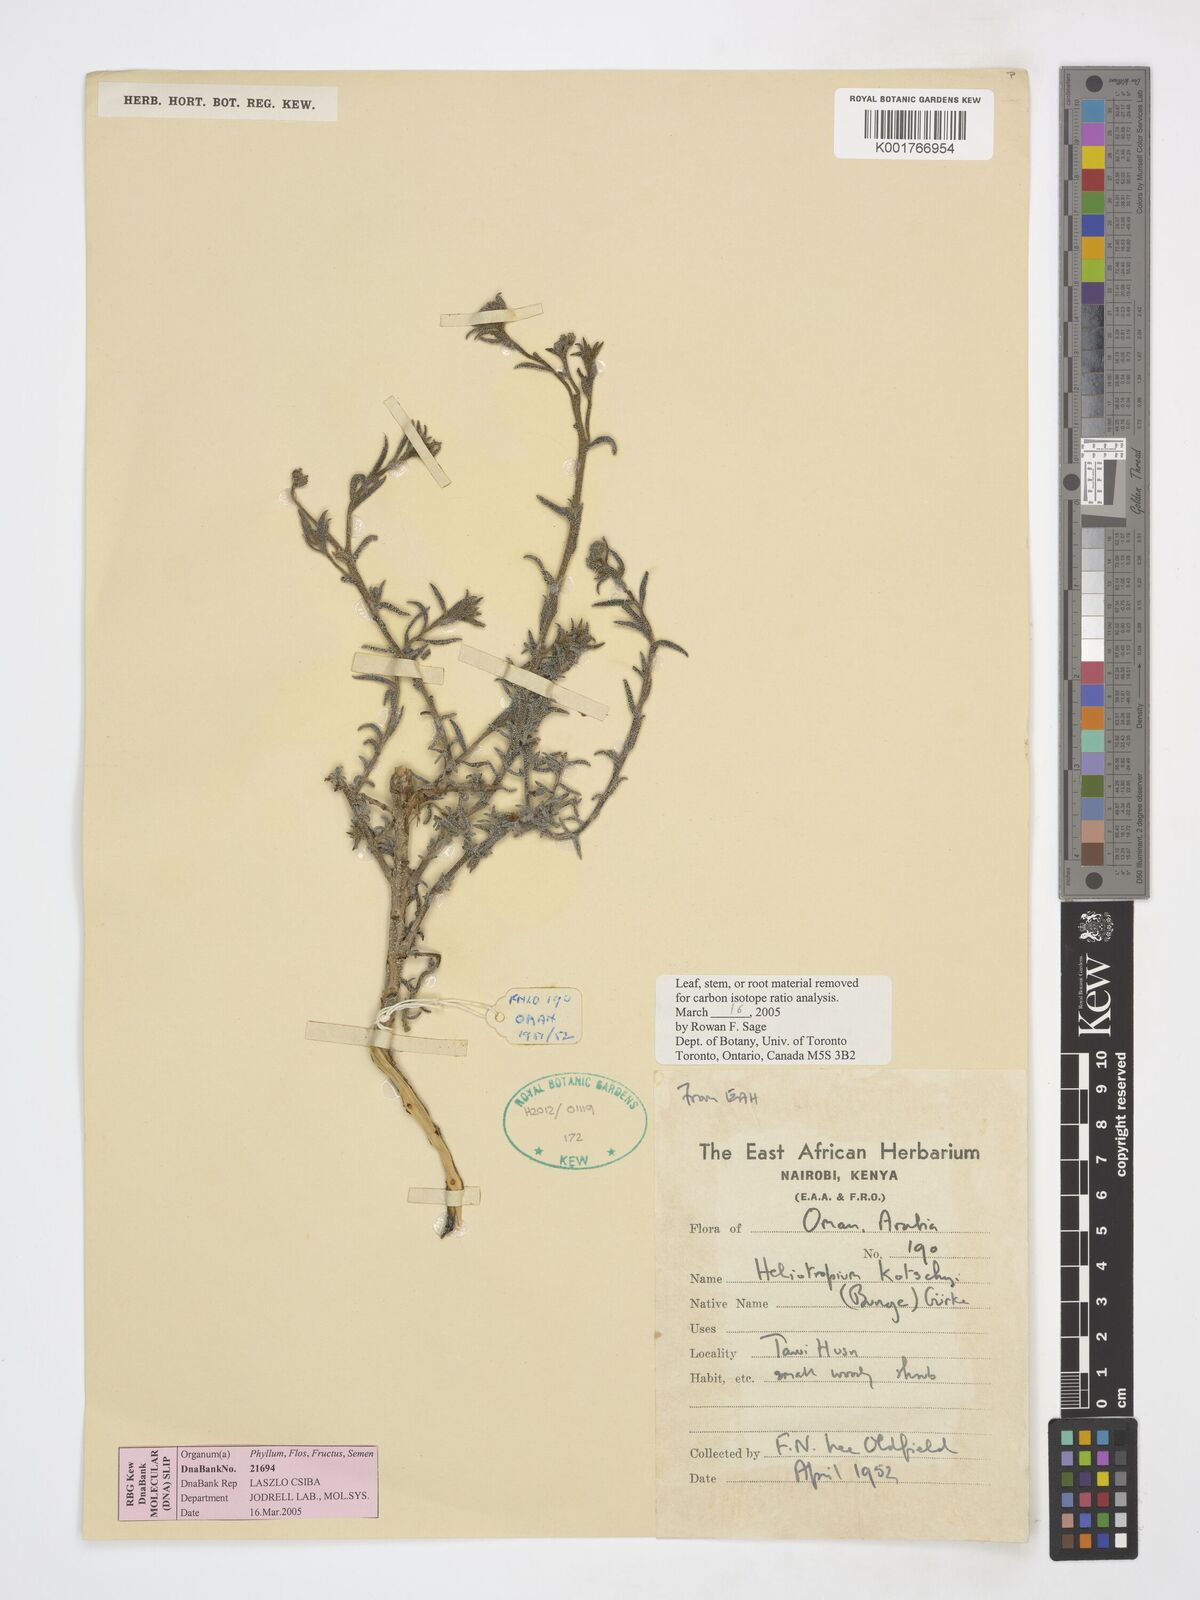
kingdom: Plantae
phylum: Tracheophyta
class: Magnoliopsida
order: Boraginales
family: Heliotropiaceae
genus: Heliotropium
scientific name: Heliotropium bacciferum
